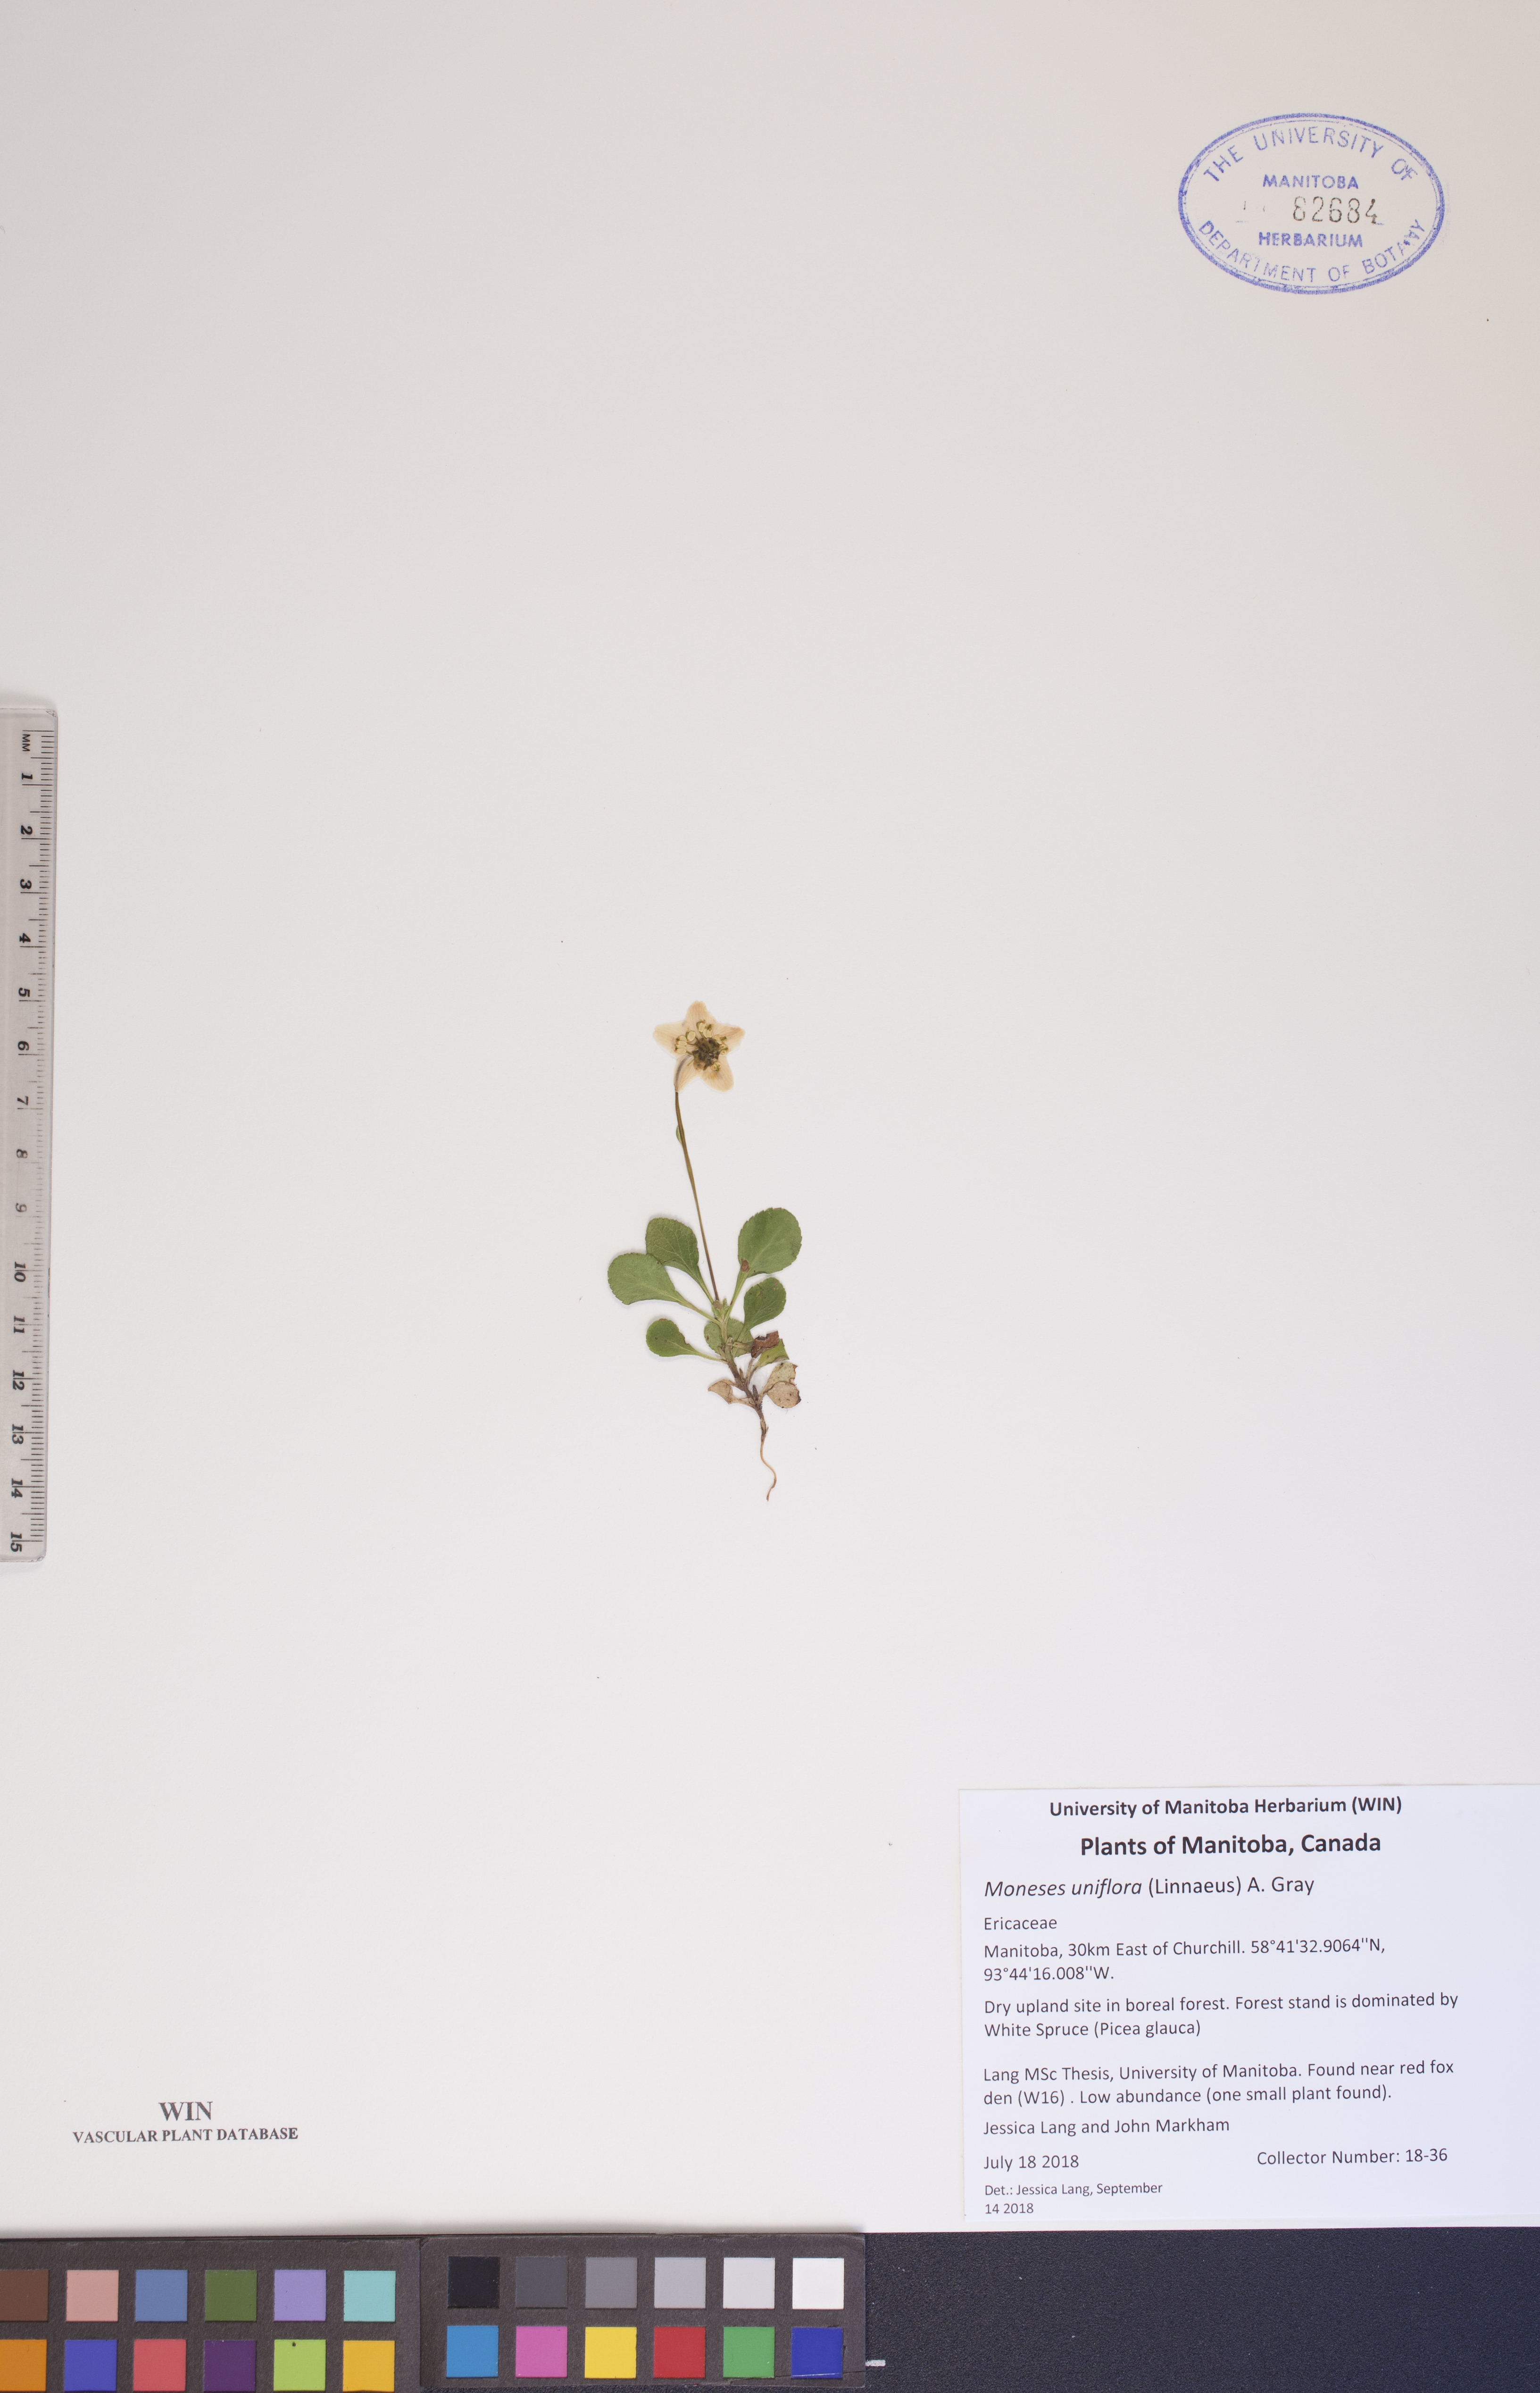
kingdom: Plantae
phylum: Tracheophyta
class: Magnoliopsida
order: Ericales
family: Ericaceae
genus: Moneses
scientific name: Moneses uniflora
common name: One-flowered wintergreen
